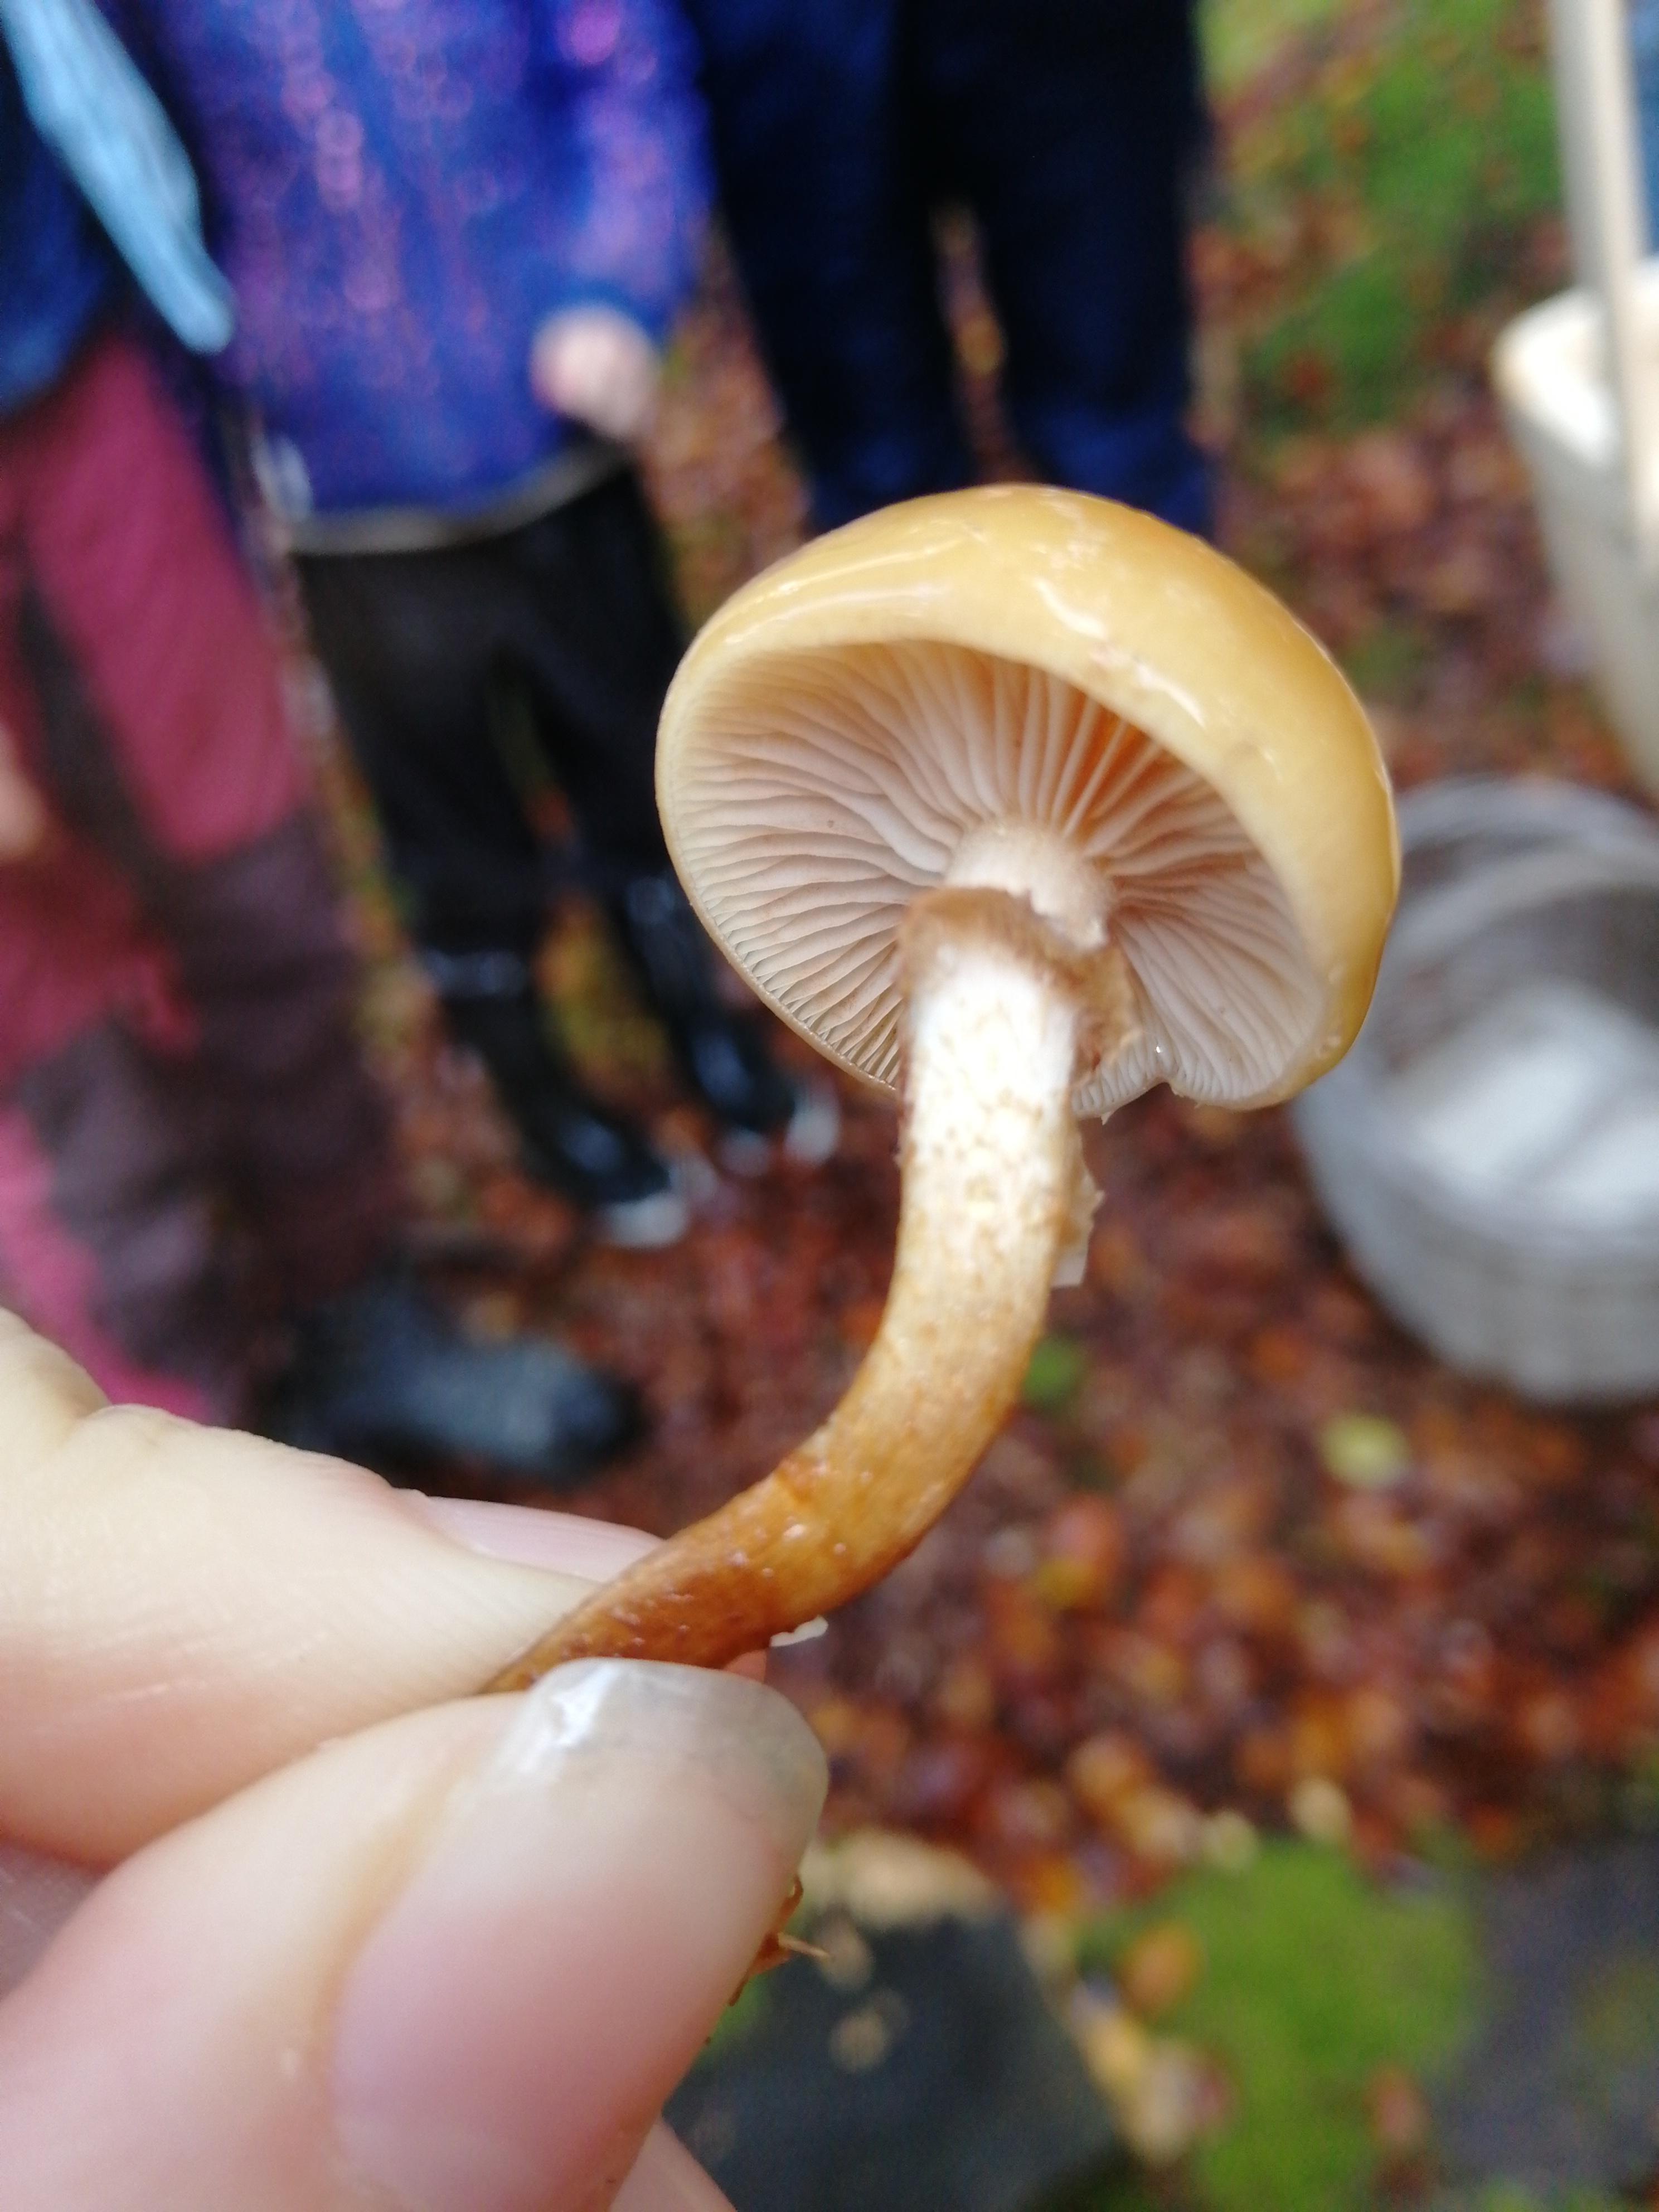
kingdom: Fungi
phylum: Basidiomycota
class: Agaricomycetes
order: Agaricales
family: Strophariaceae
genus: Kuehneromyces
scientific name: Kuehneromyces mutabilis
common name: foranderlig skælhat
